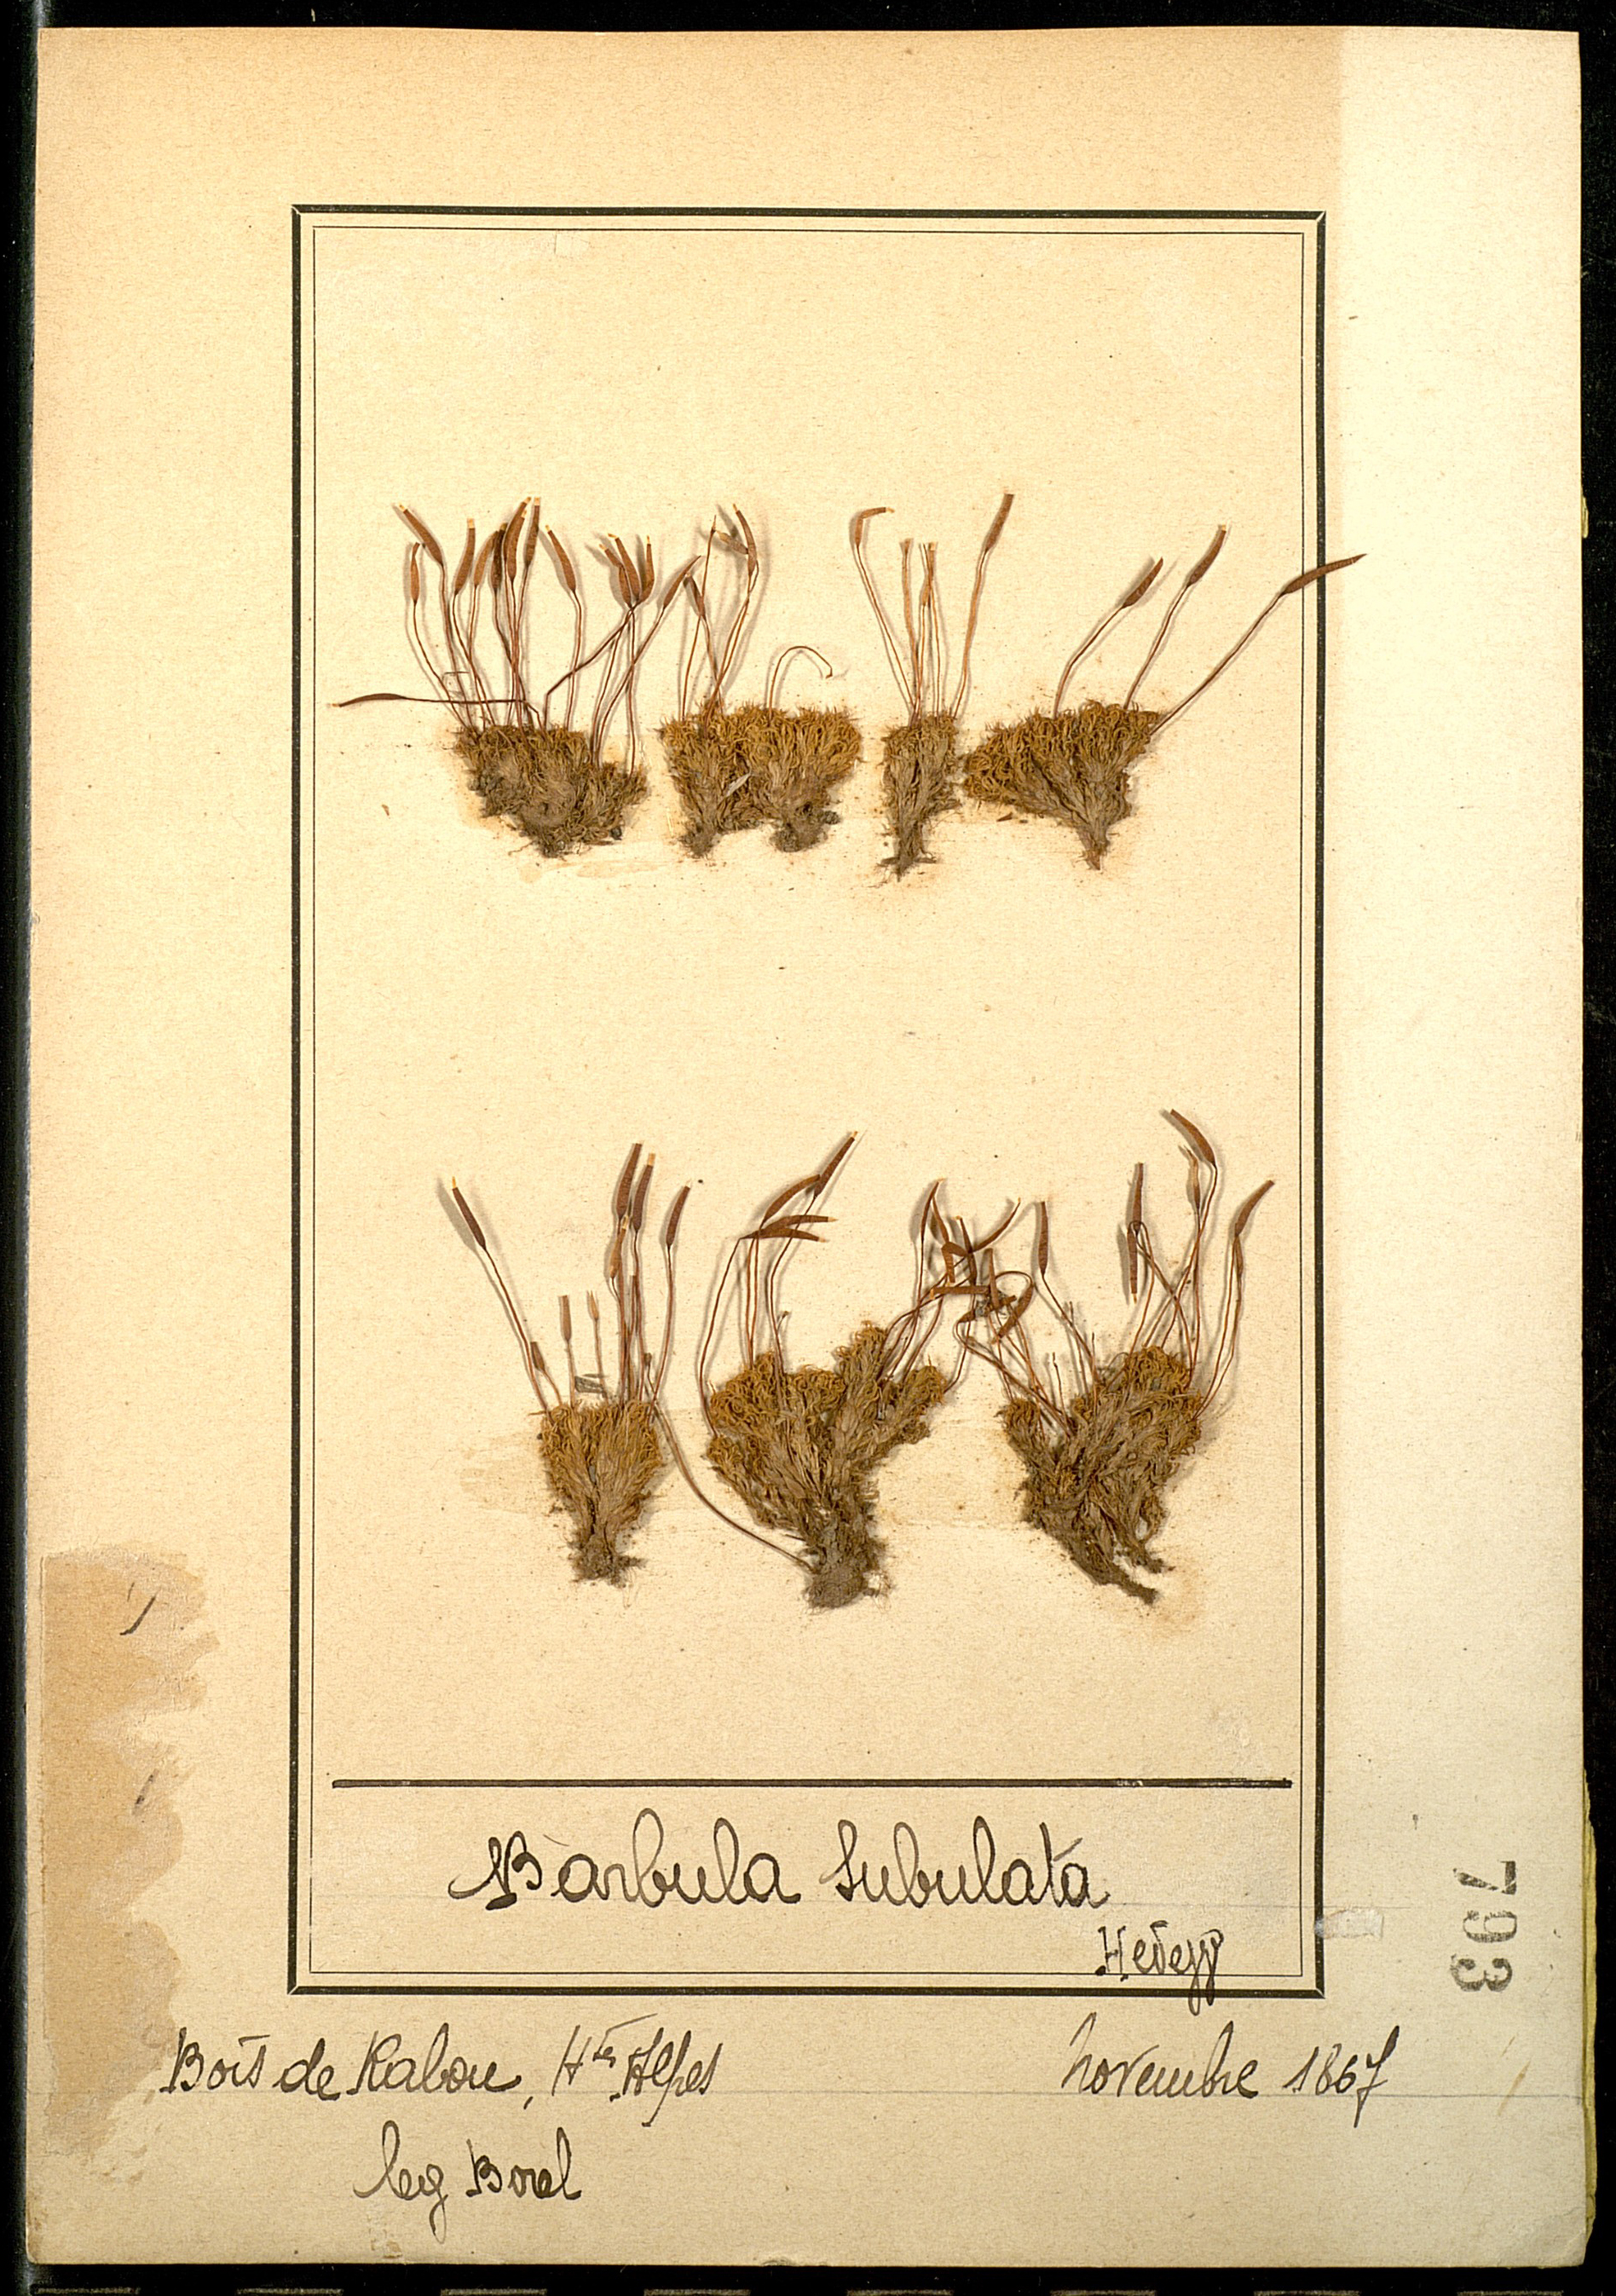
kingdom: Plantae
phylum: Bryophyta
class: Bryopsida
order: Pottiales
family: Pottiaceae
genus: Tortula
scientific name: Tortula subulata
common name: Upright screw-moss
